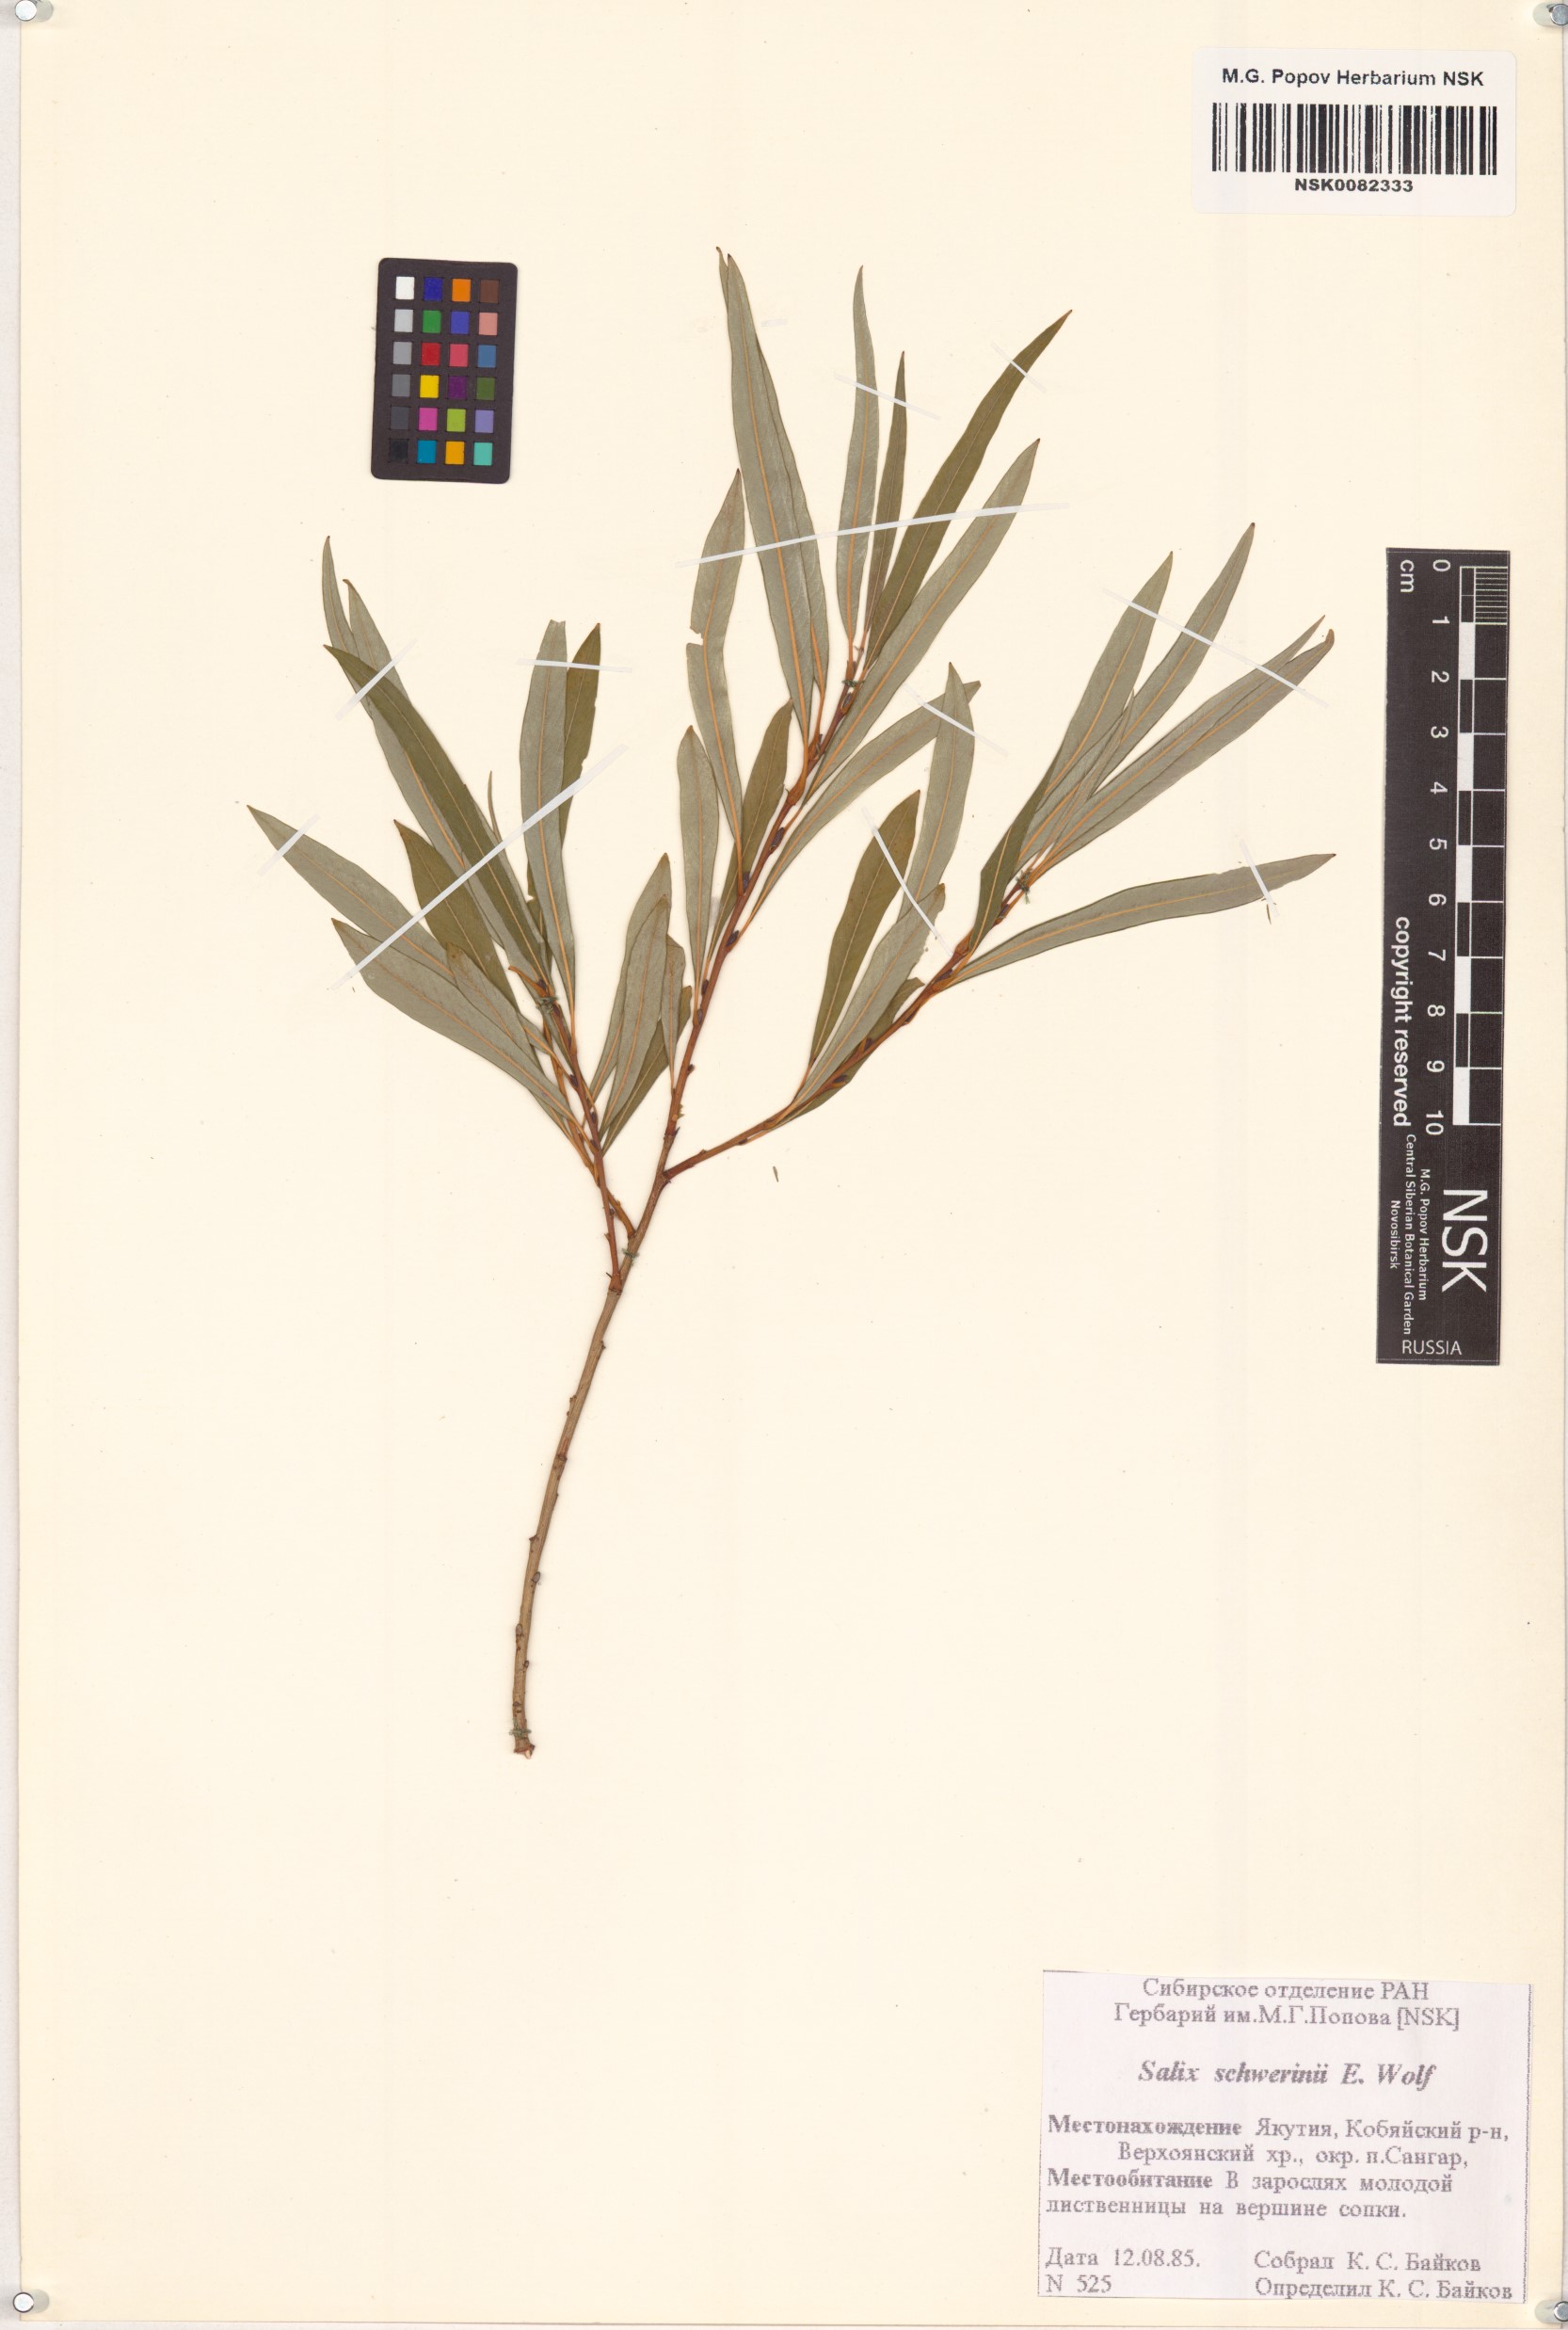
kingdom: Plantae
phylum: Tracheophyta
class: Magnoliopsida
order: Malpighiales
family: Salicaceae
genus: Salix
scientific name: Salix schwerinii
